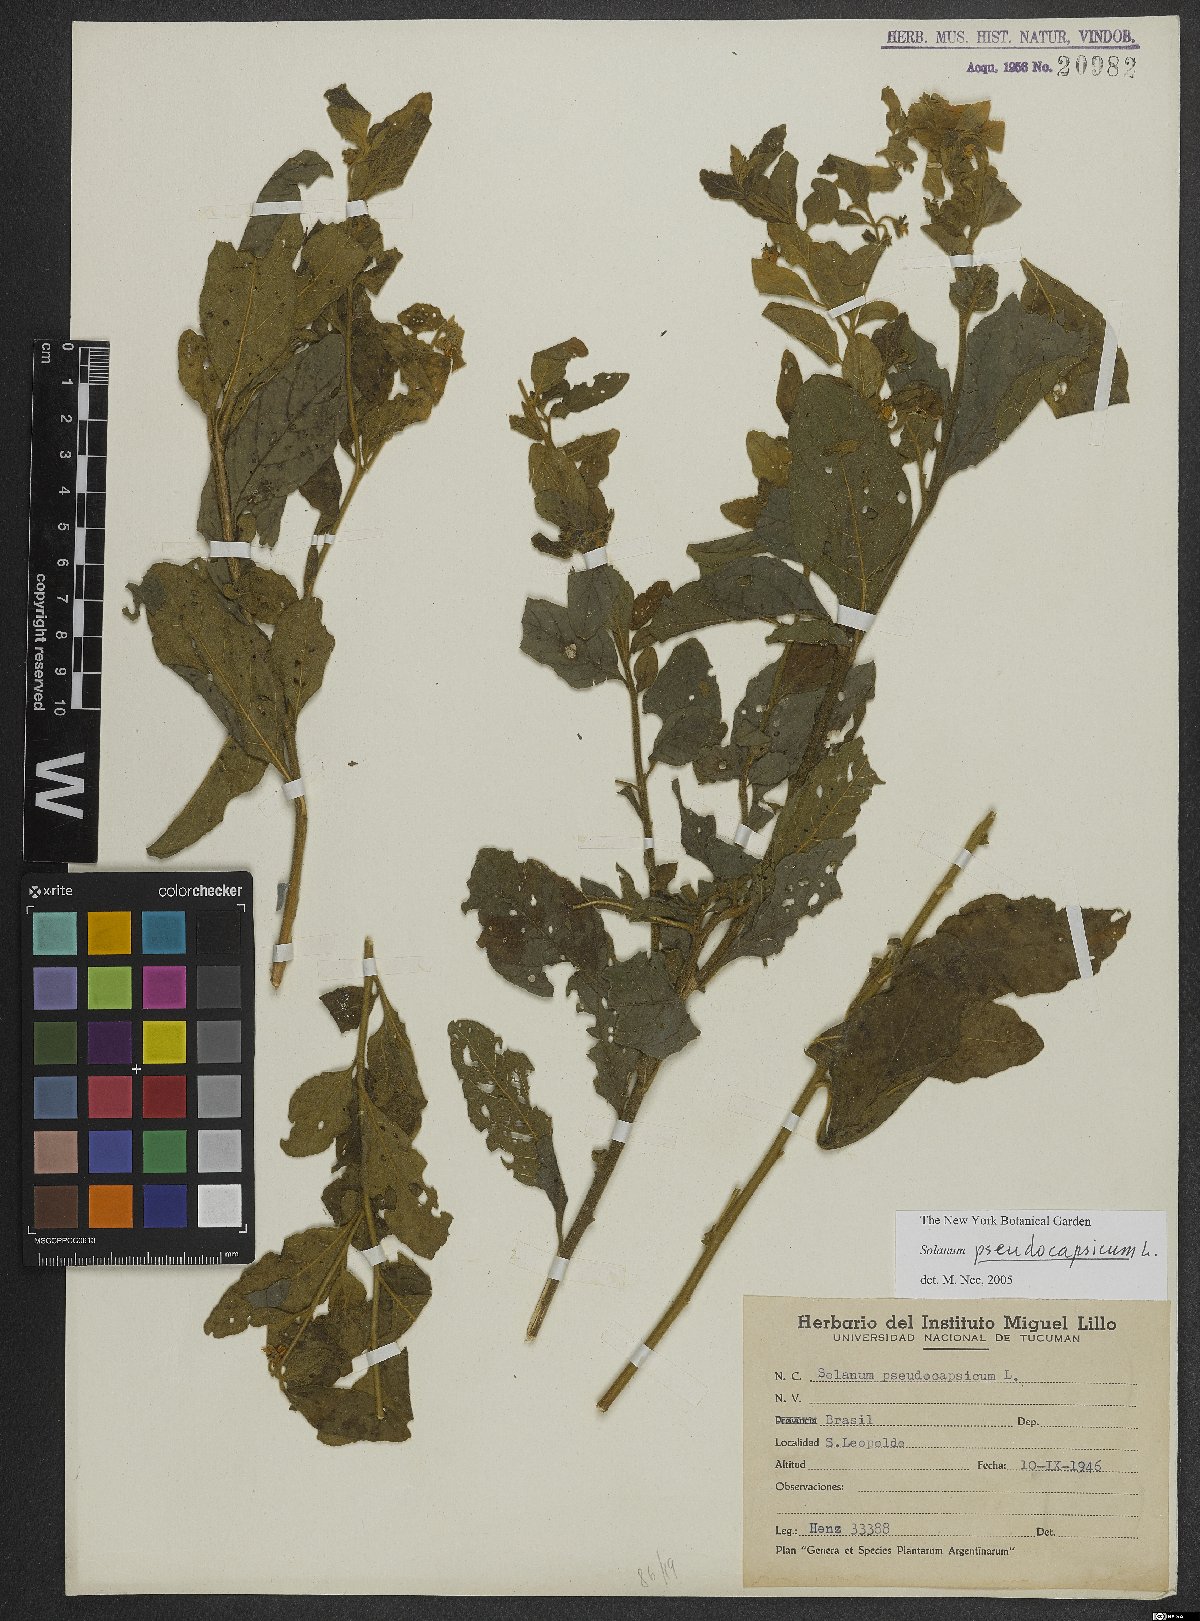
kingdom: Plantae
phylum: Tracheophyta
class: Magnoliopsida
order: Solanales
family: Solanaceae
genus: Solanum
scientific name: Solanum pseudocapsicum
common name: Jerusalem cherry
